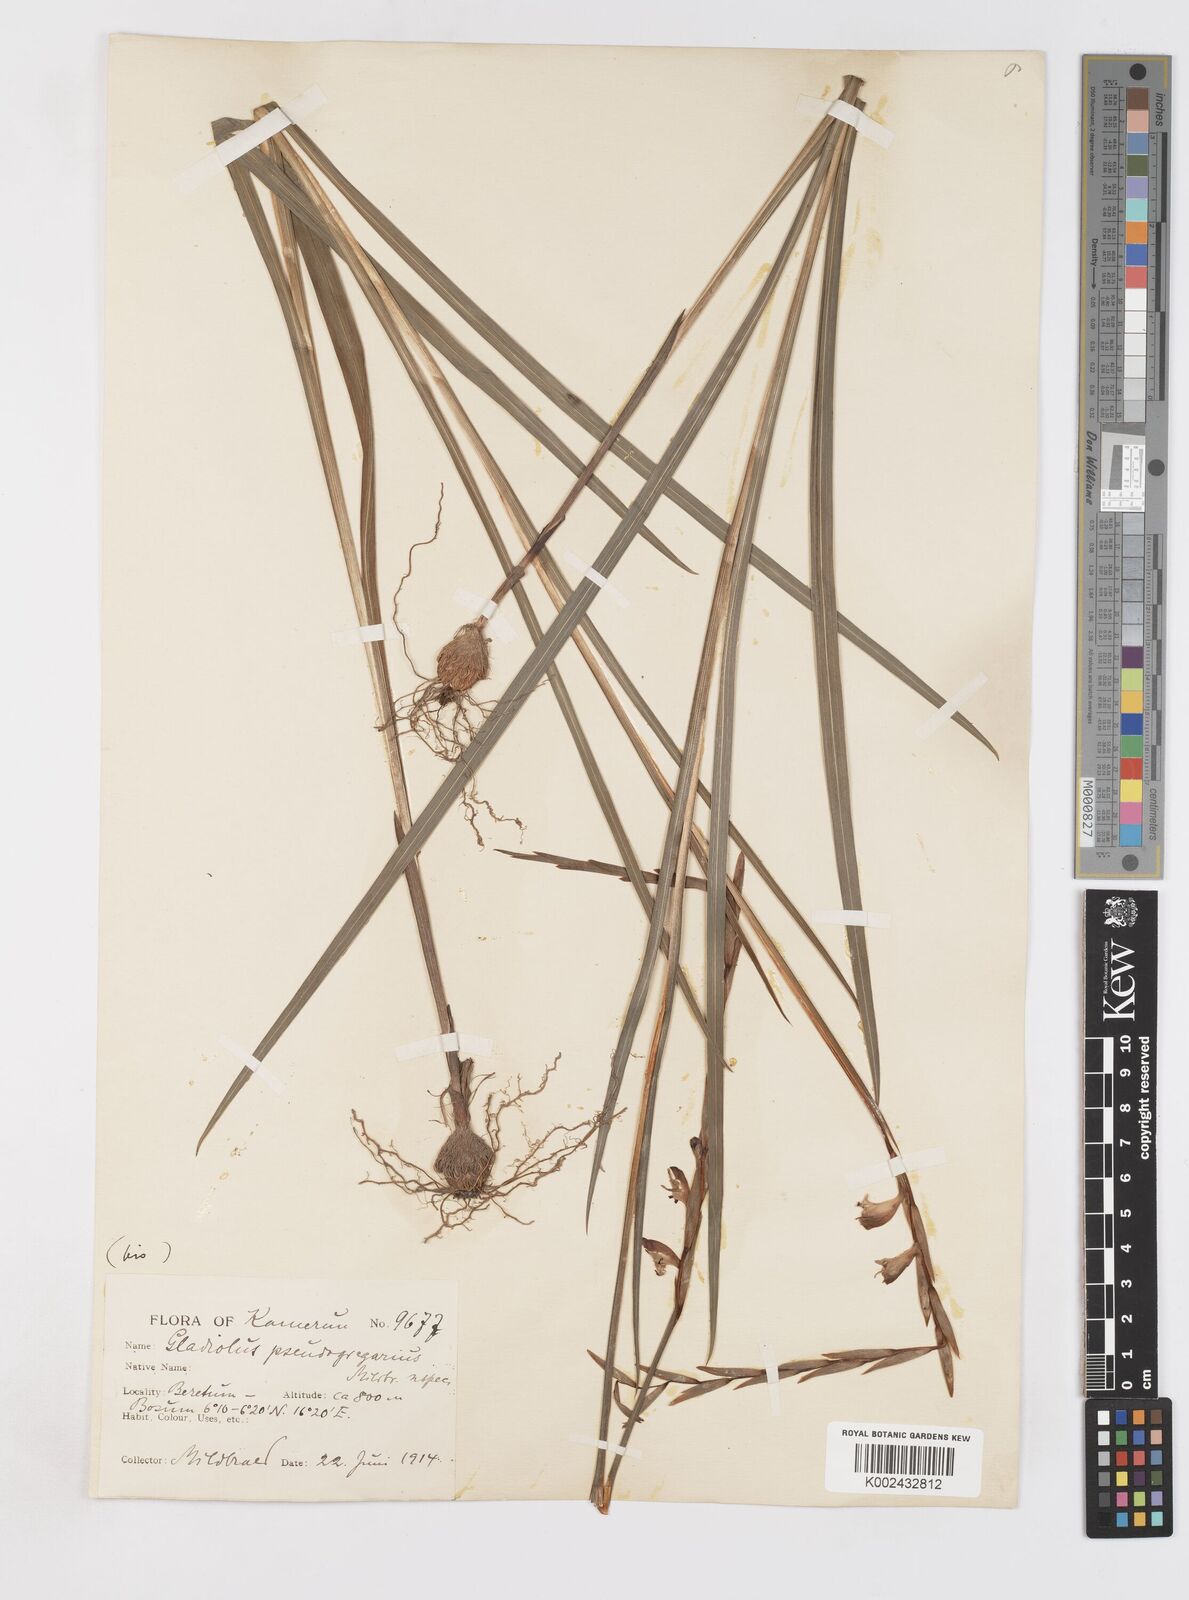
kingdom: Plantae
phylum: Tracheophyta
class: Liliopsida
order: Asparagales
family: Iridaceae
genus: Gladiolus
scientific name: Gladiolus gregarius
